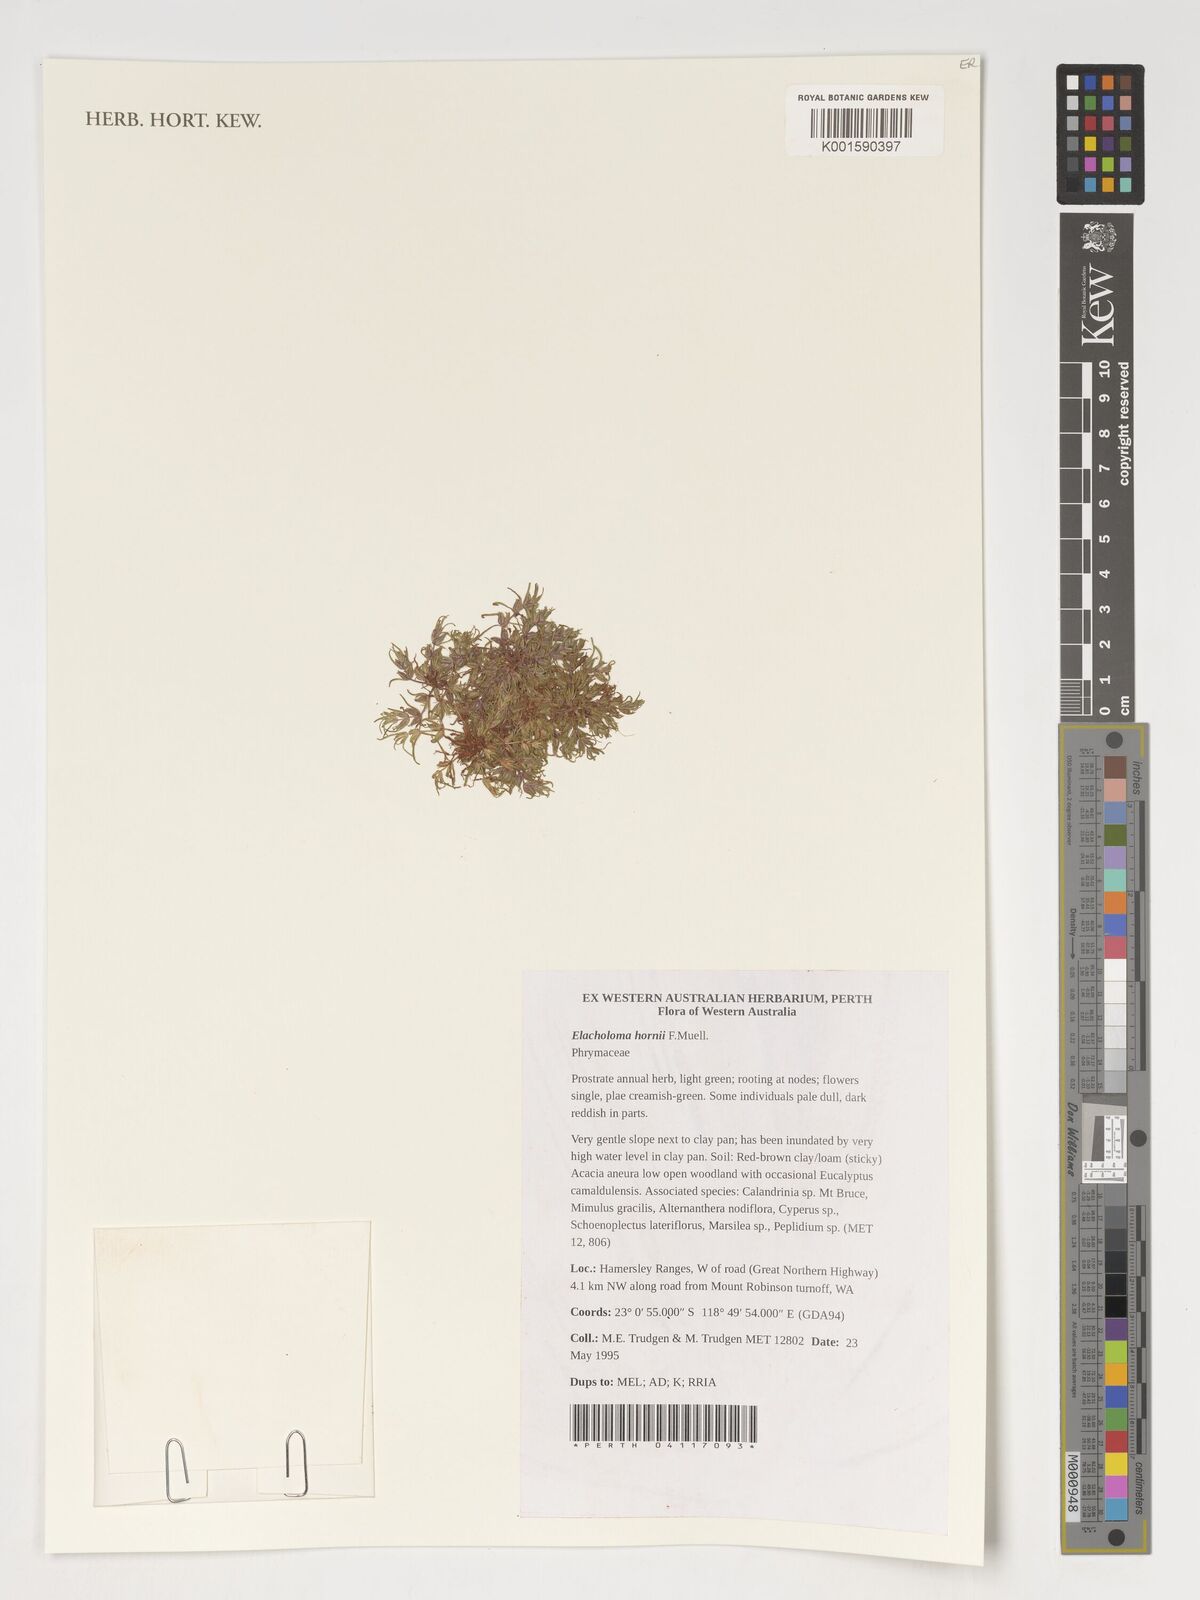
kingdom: Plantae
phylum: Tracheophyta
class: Magnoliopsida
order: Lamiales
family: Phrymaceae
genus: Elacholoma
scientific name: Elacholoma hornii
